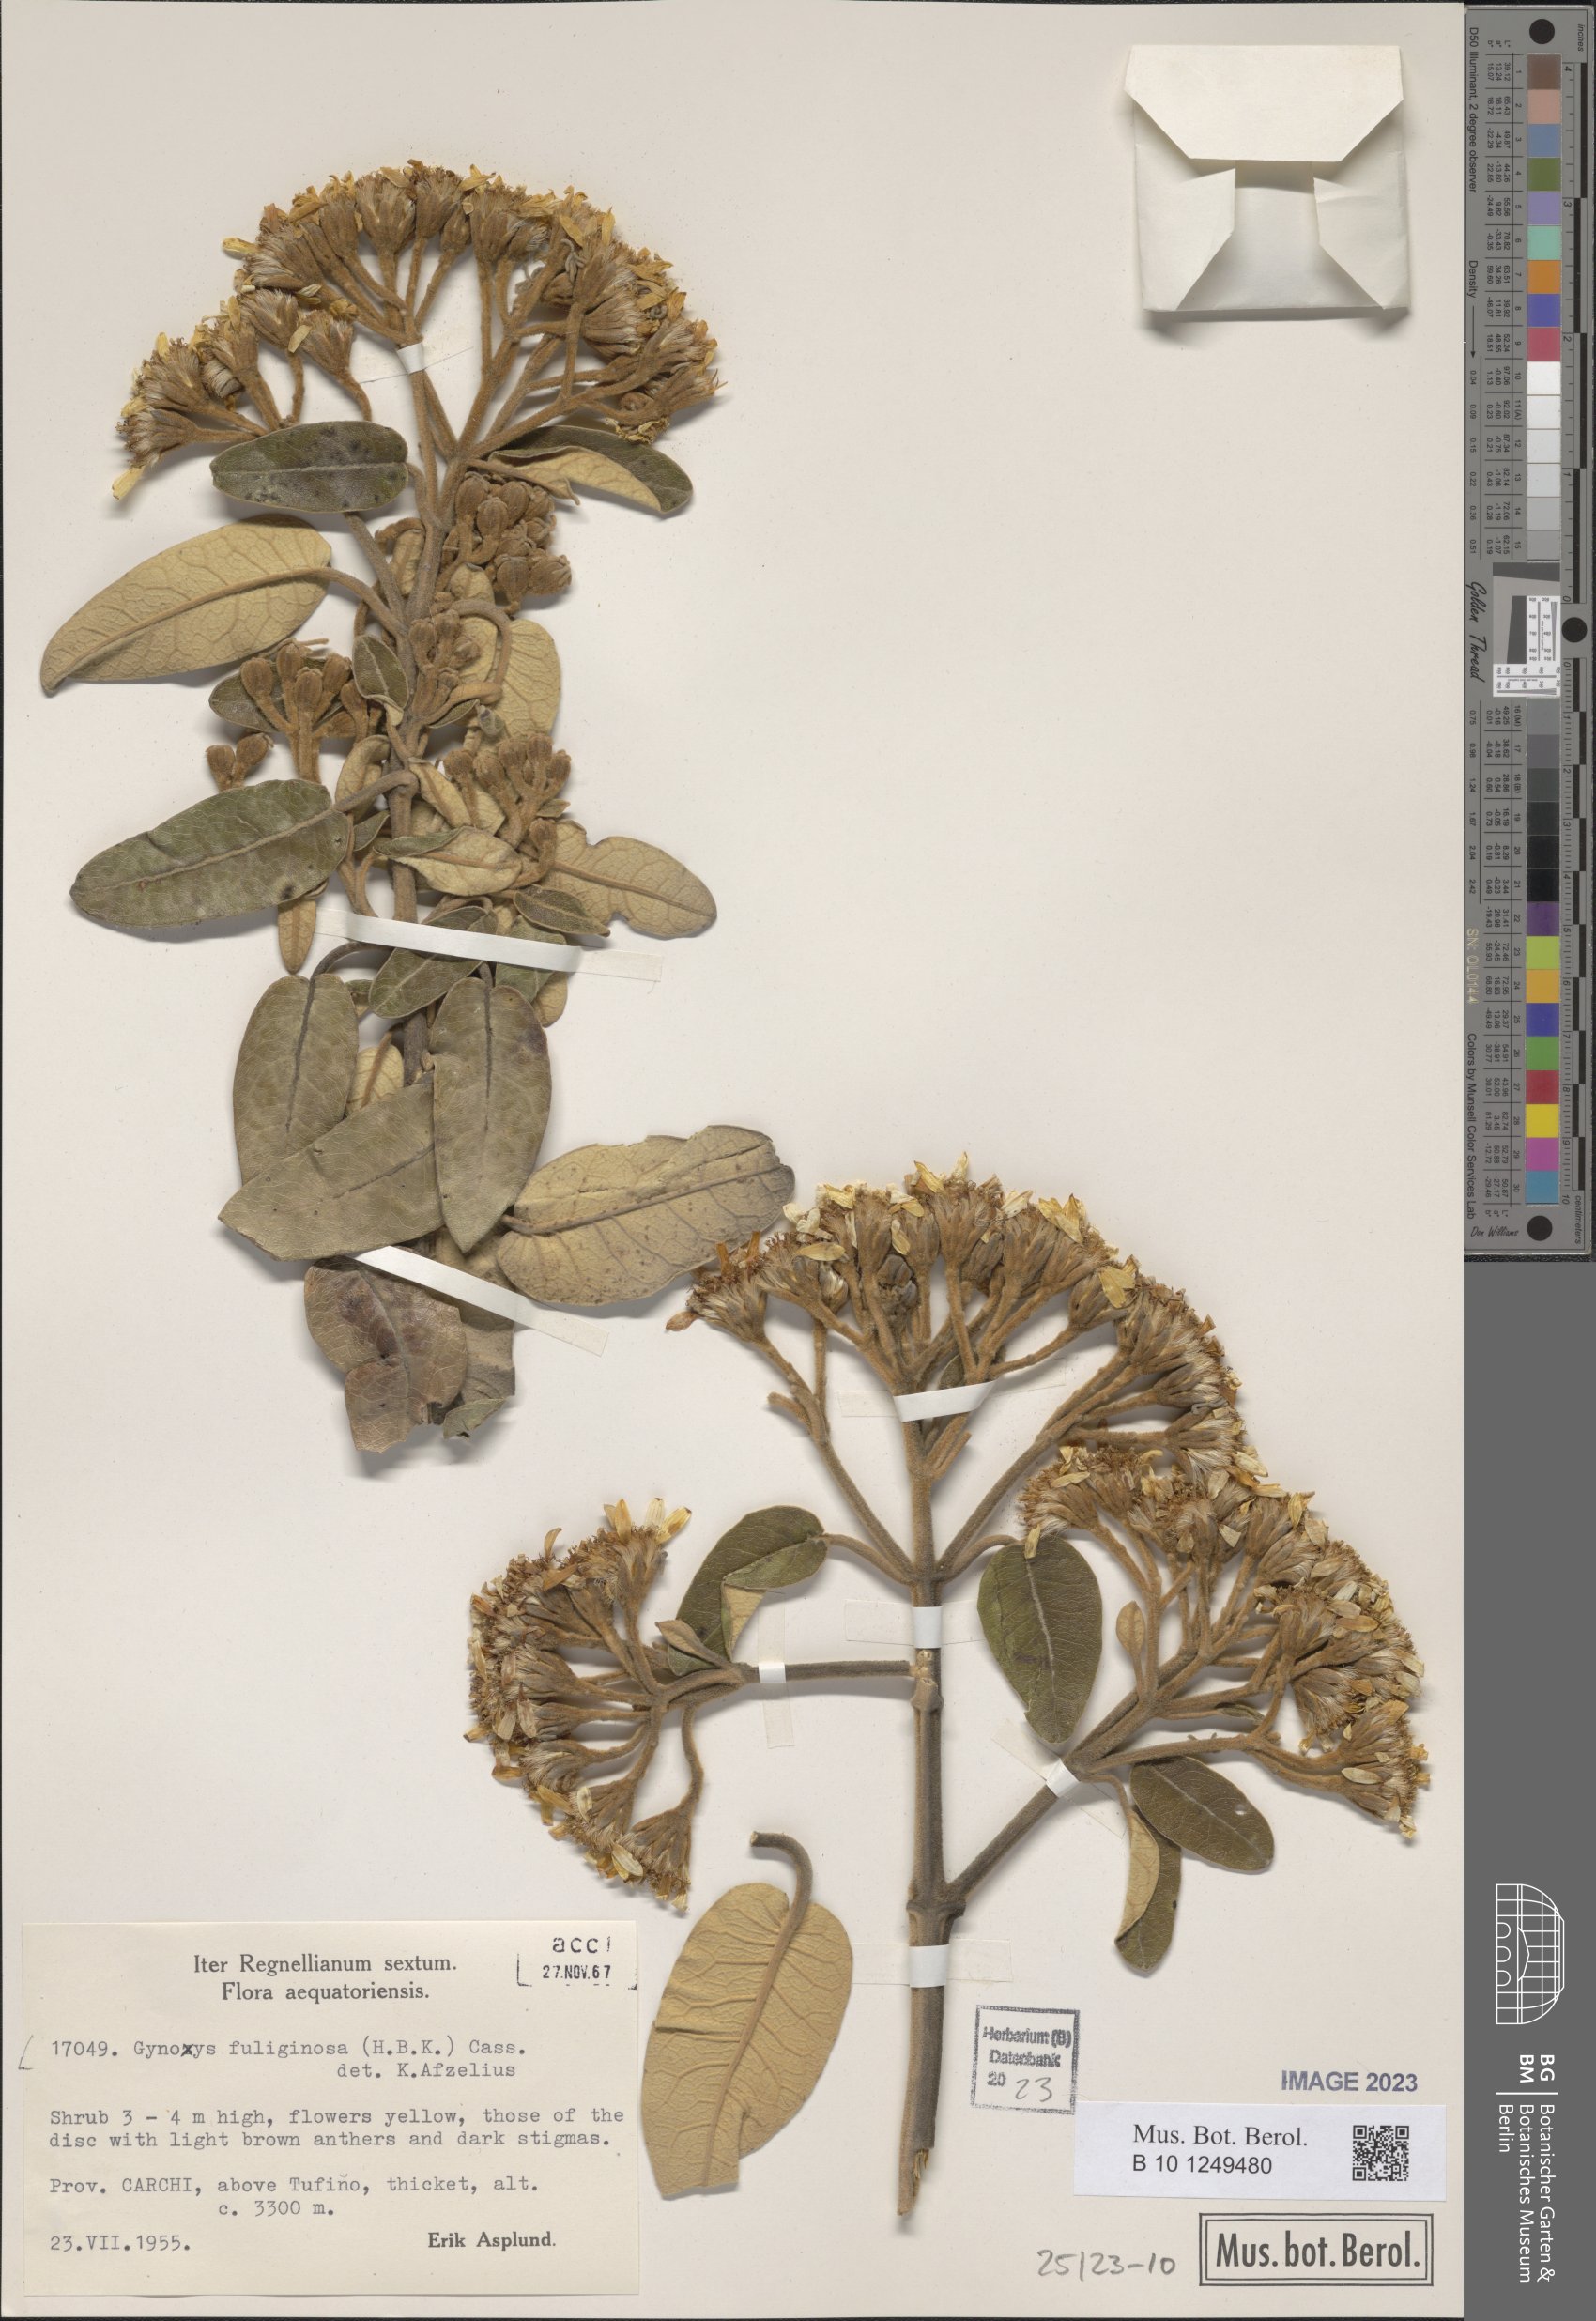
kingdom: Plantae
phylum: Tracheophyta
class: Magnoliopsida
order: Asterales
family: Asteraceae
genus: Gynoxys
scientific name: Gynoxys fuliginosa
